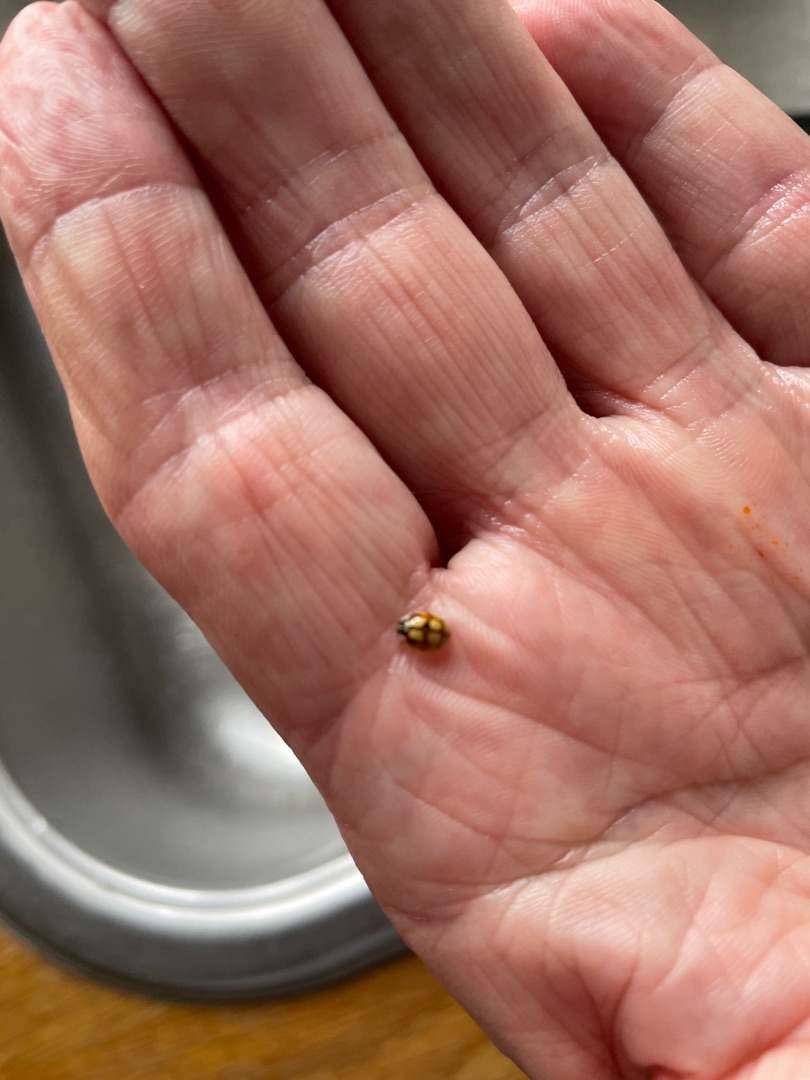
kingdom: Animalia
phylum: Arthropoda
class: Insecta
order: Coleoptera
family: Coccinellidae
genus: Adalia
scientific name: Adalia decempunctata
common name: Tiplettet mariehøne
